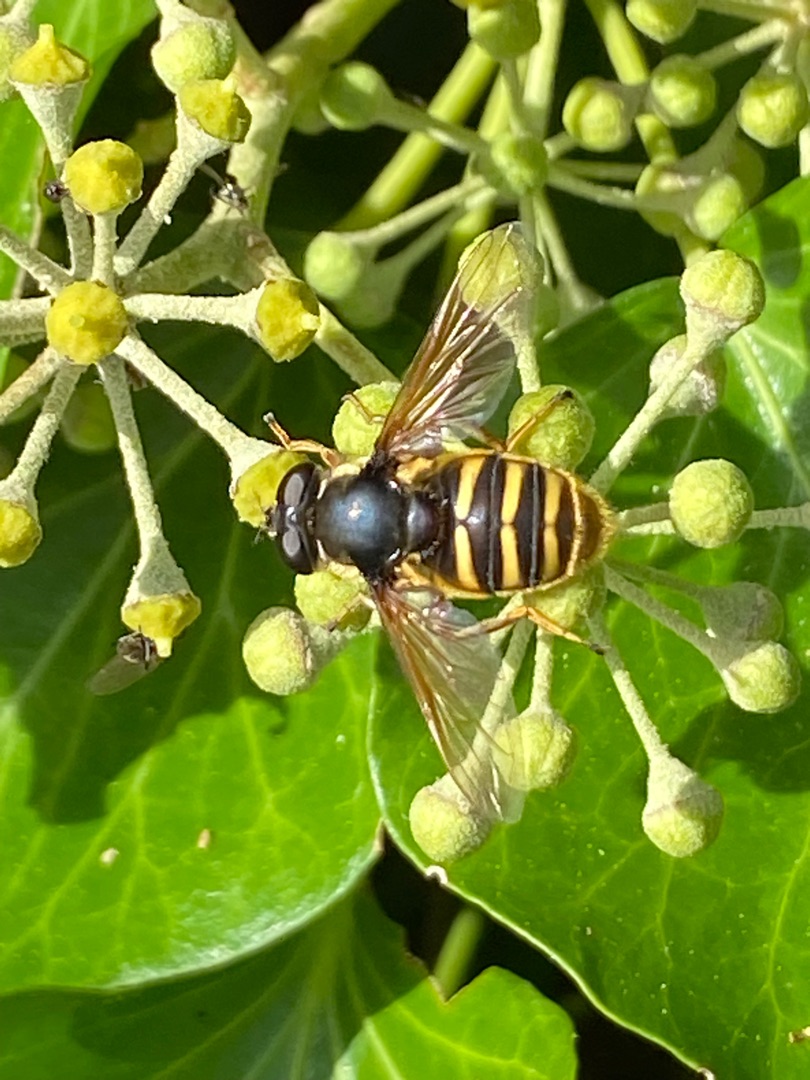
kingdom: Animalia
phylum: Arthropoda
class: Insecta
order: Diptera
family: Syrphidae
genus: Sericomyia
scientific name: Sericomyia silentis
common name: Tørve-silkesvirreflue
